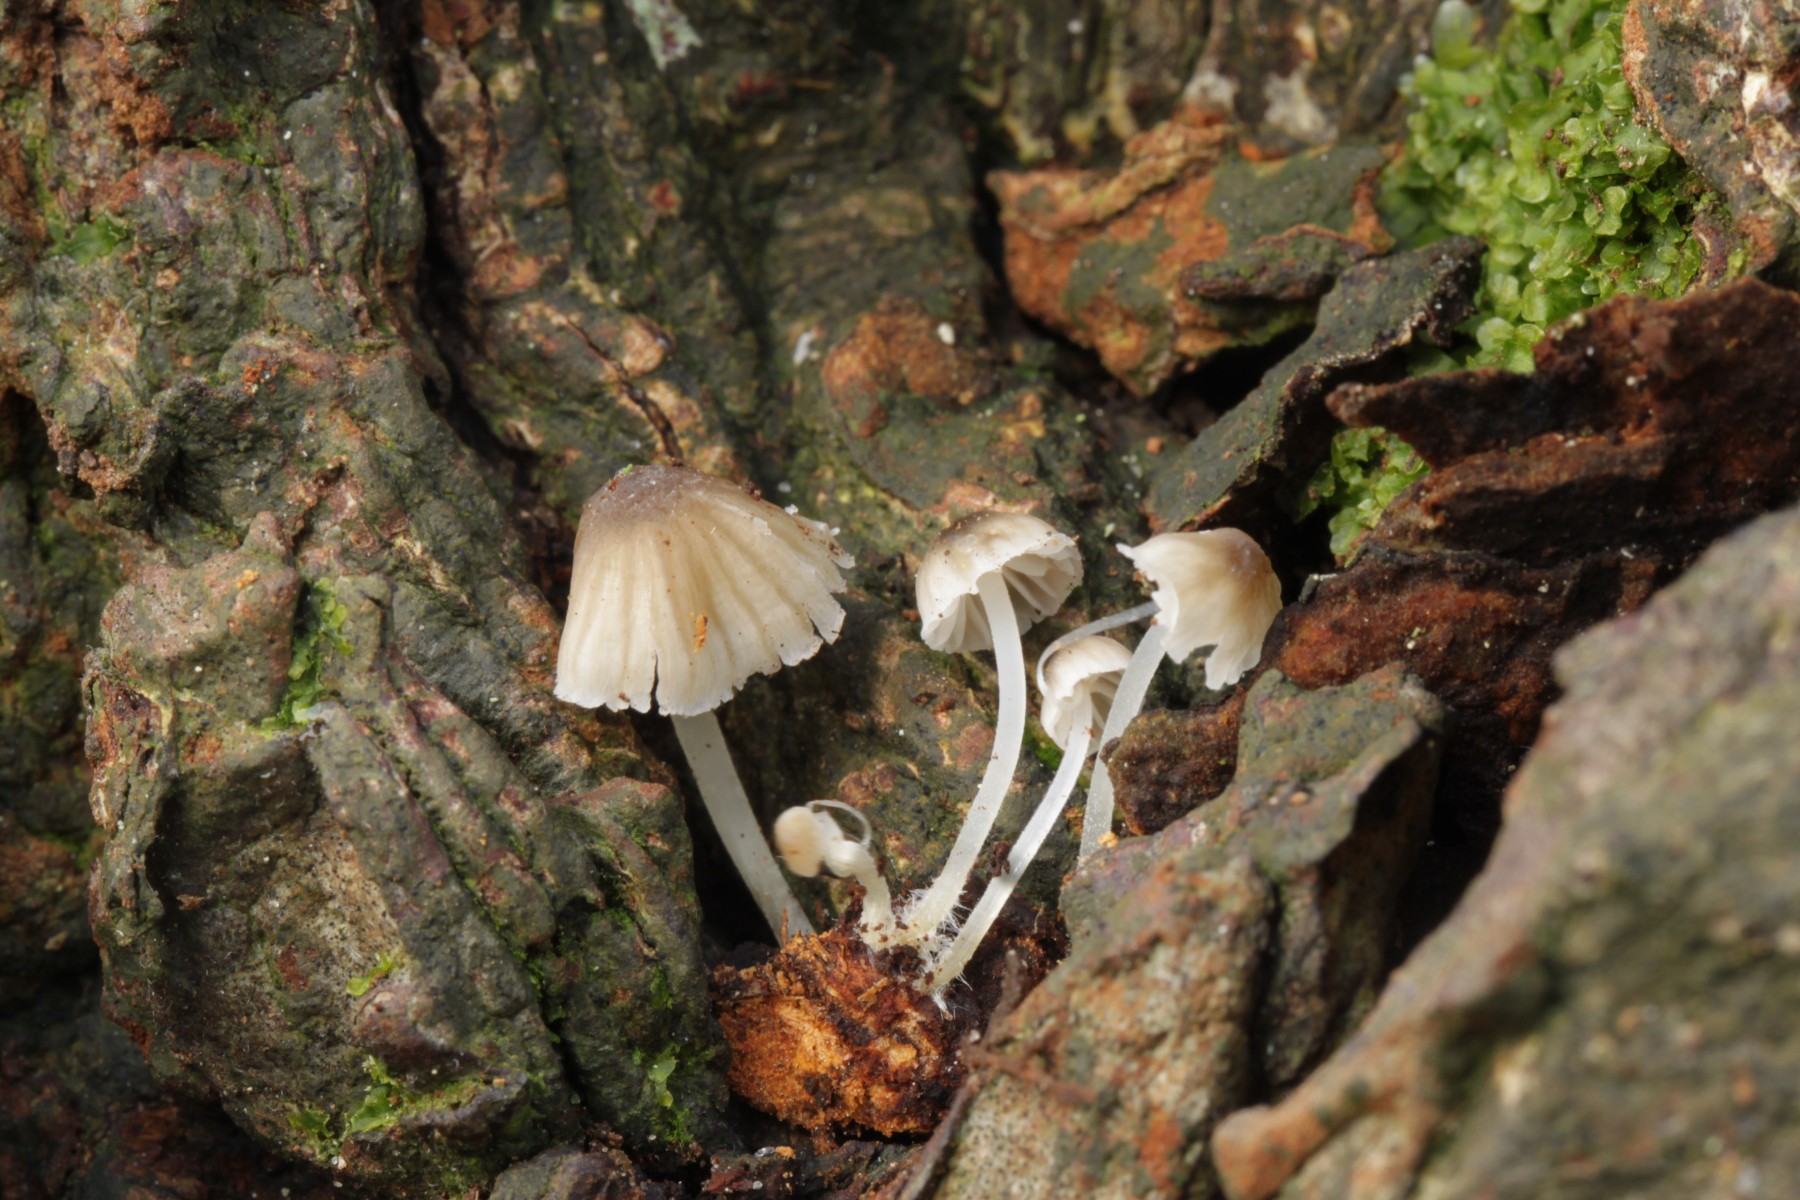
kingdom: Fungi
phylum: Basidiomycota
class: Agaricomycetes
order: Agaricales
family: Porotheleaceae
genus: Phloeomana
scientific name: Phloeomana hiemalis
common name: sen huesvamp
